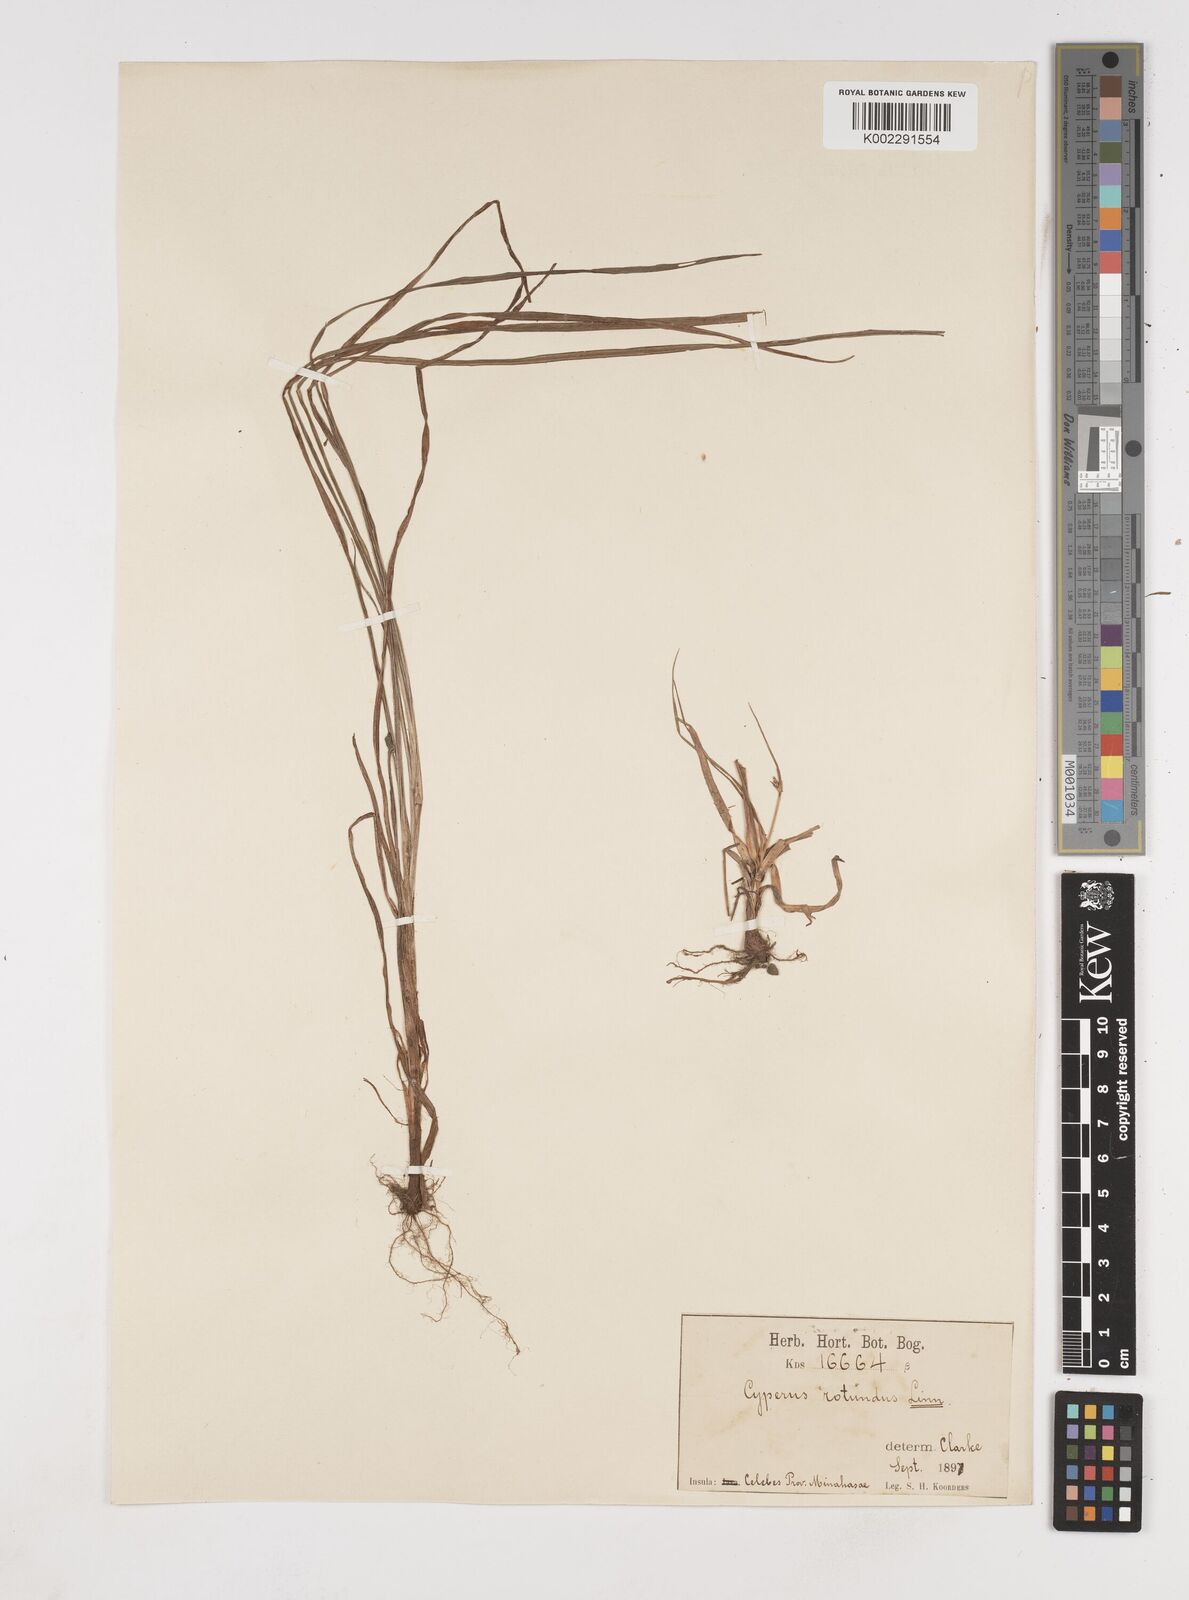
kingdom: Plantae
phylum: Tracheophyta
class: Liliopsida
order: Poales
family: Cyperaceae
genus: Cyperus
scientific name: Cyperus rotundus
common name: Nutgrass
